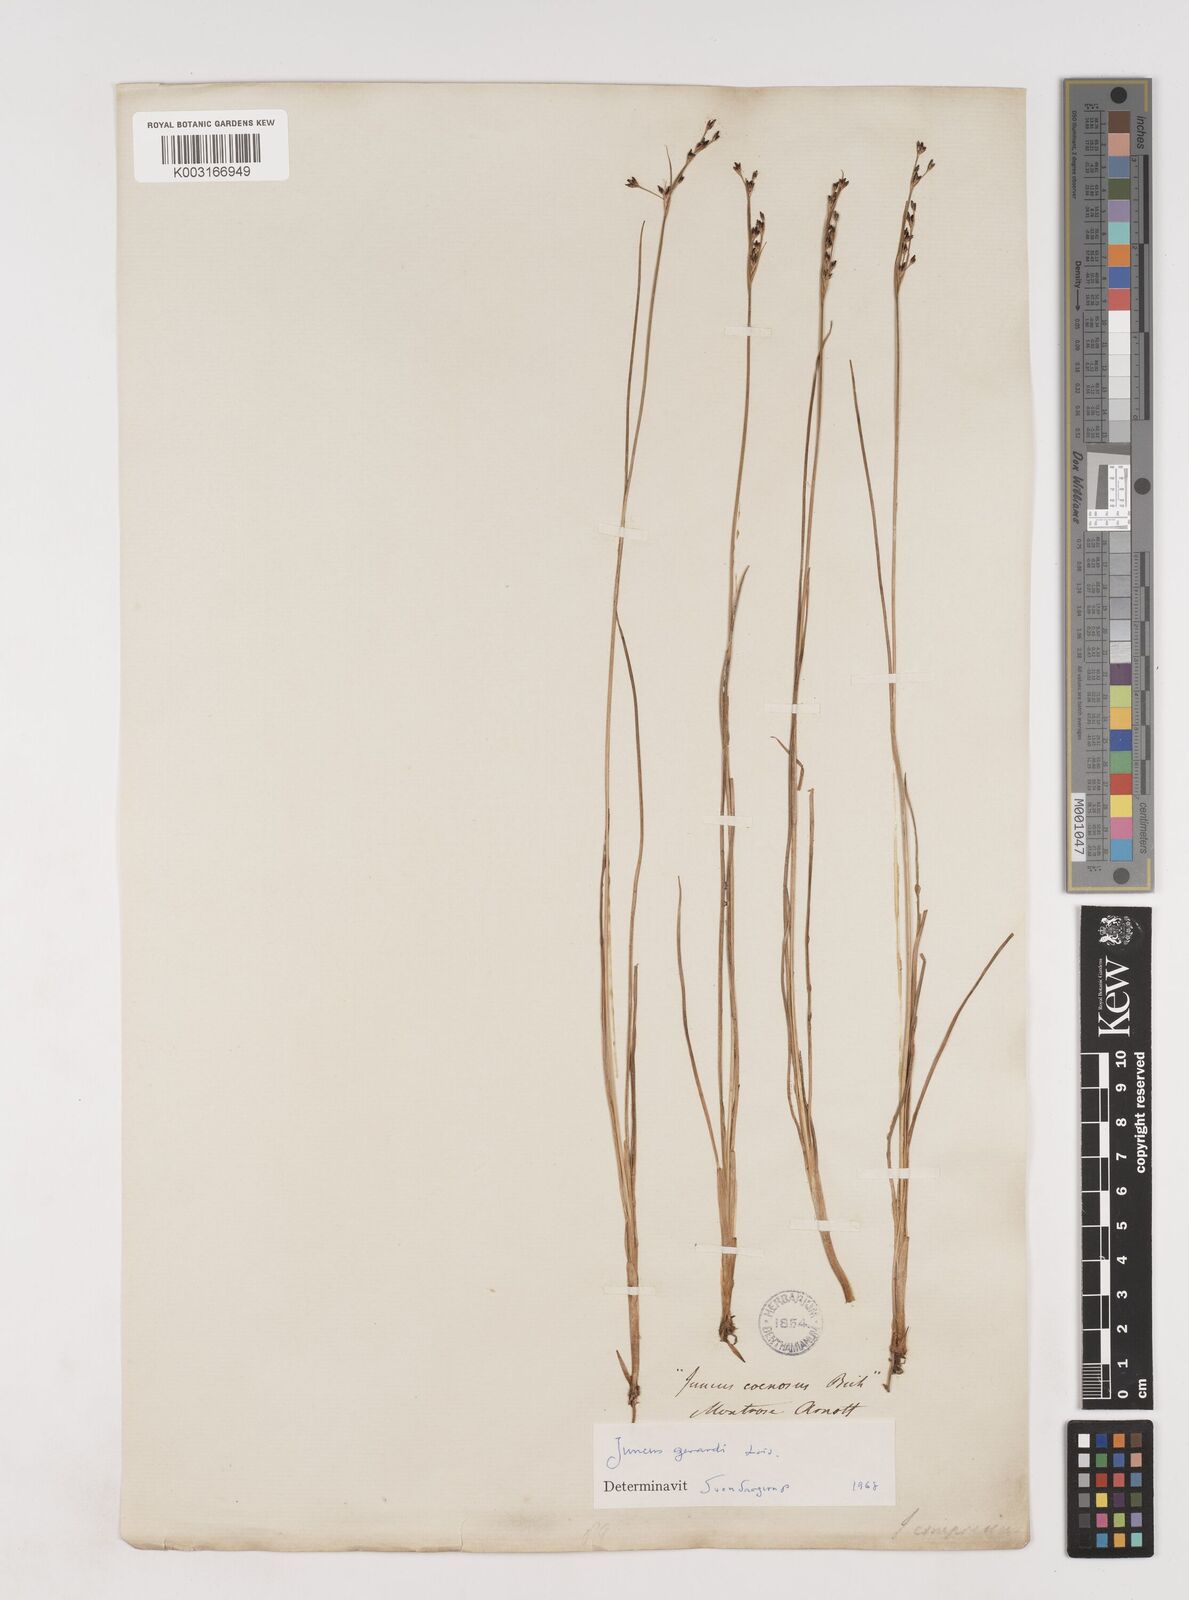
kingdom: Plantae
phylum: Tracheophyta
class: Liliopsida
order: Poales
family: Juncaceae
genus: Juncus
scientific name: Juncus gerardi
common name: Saltmarsh rush
